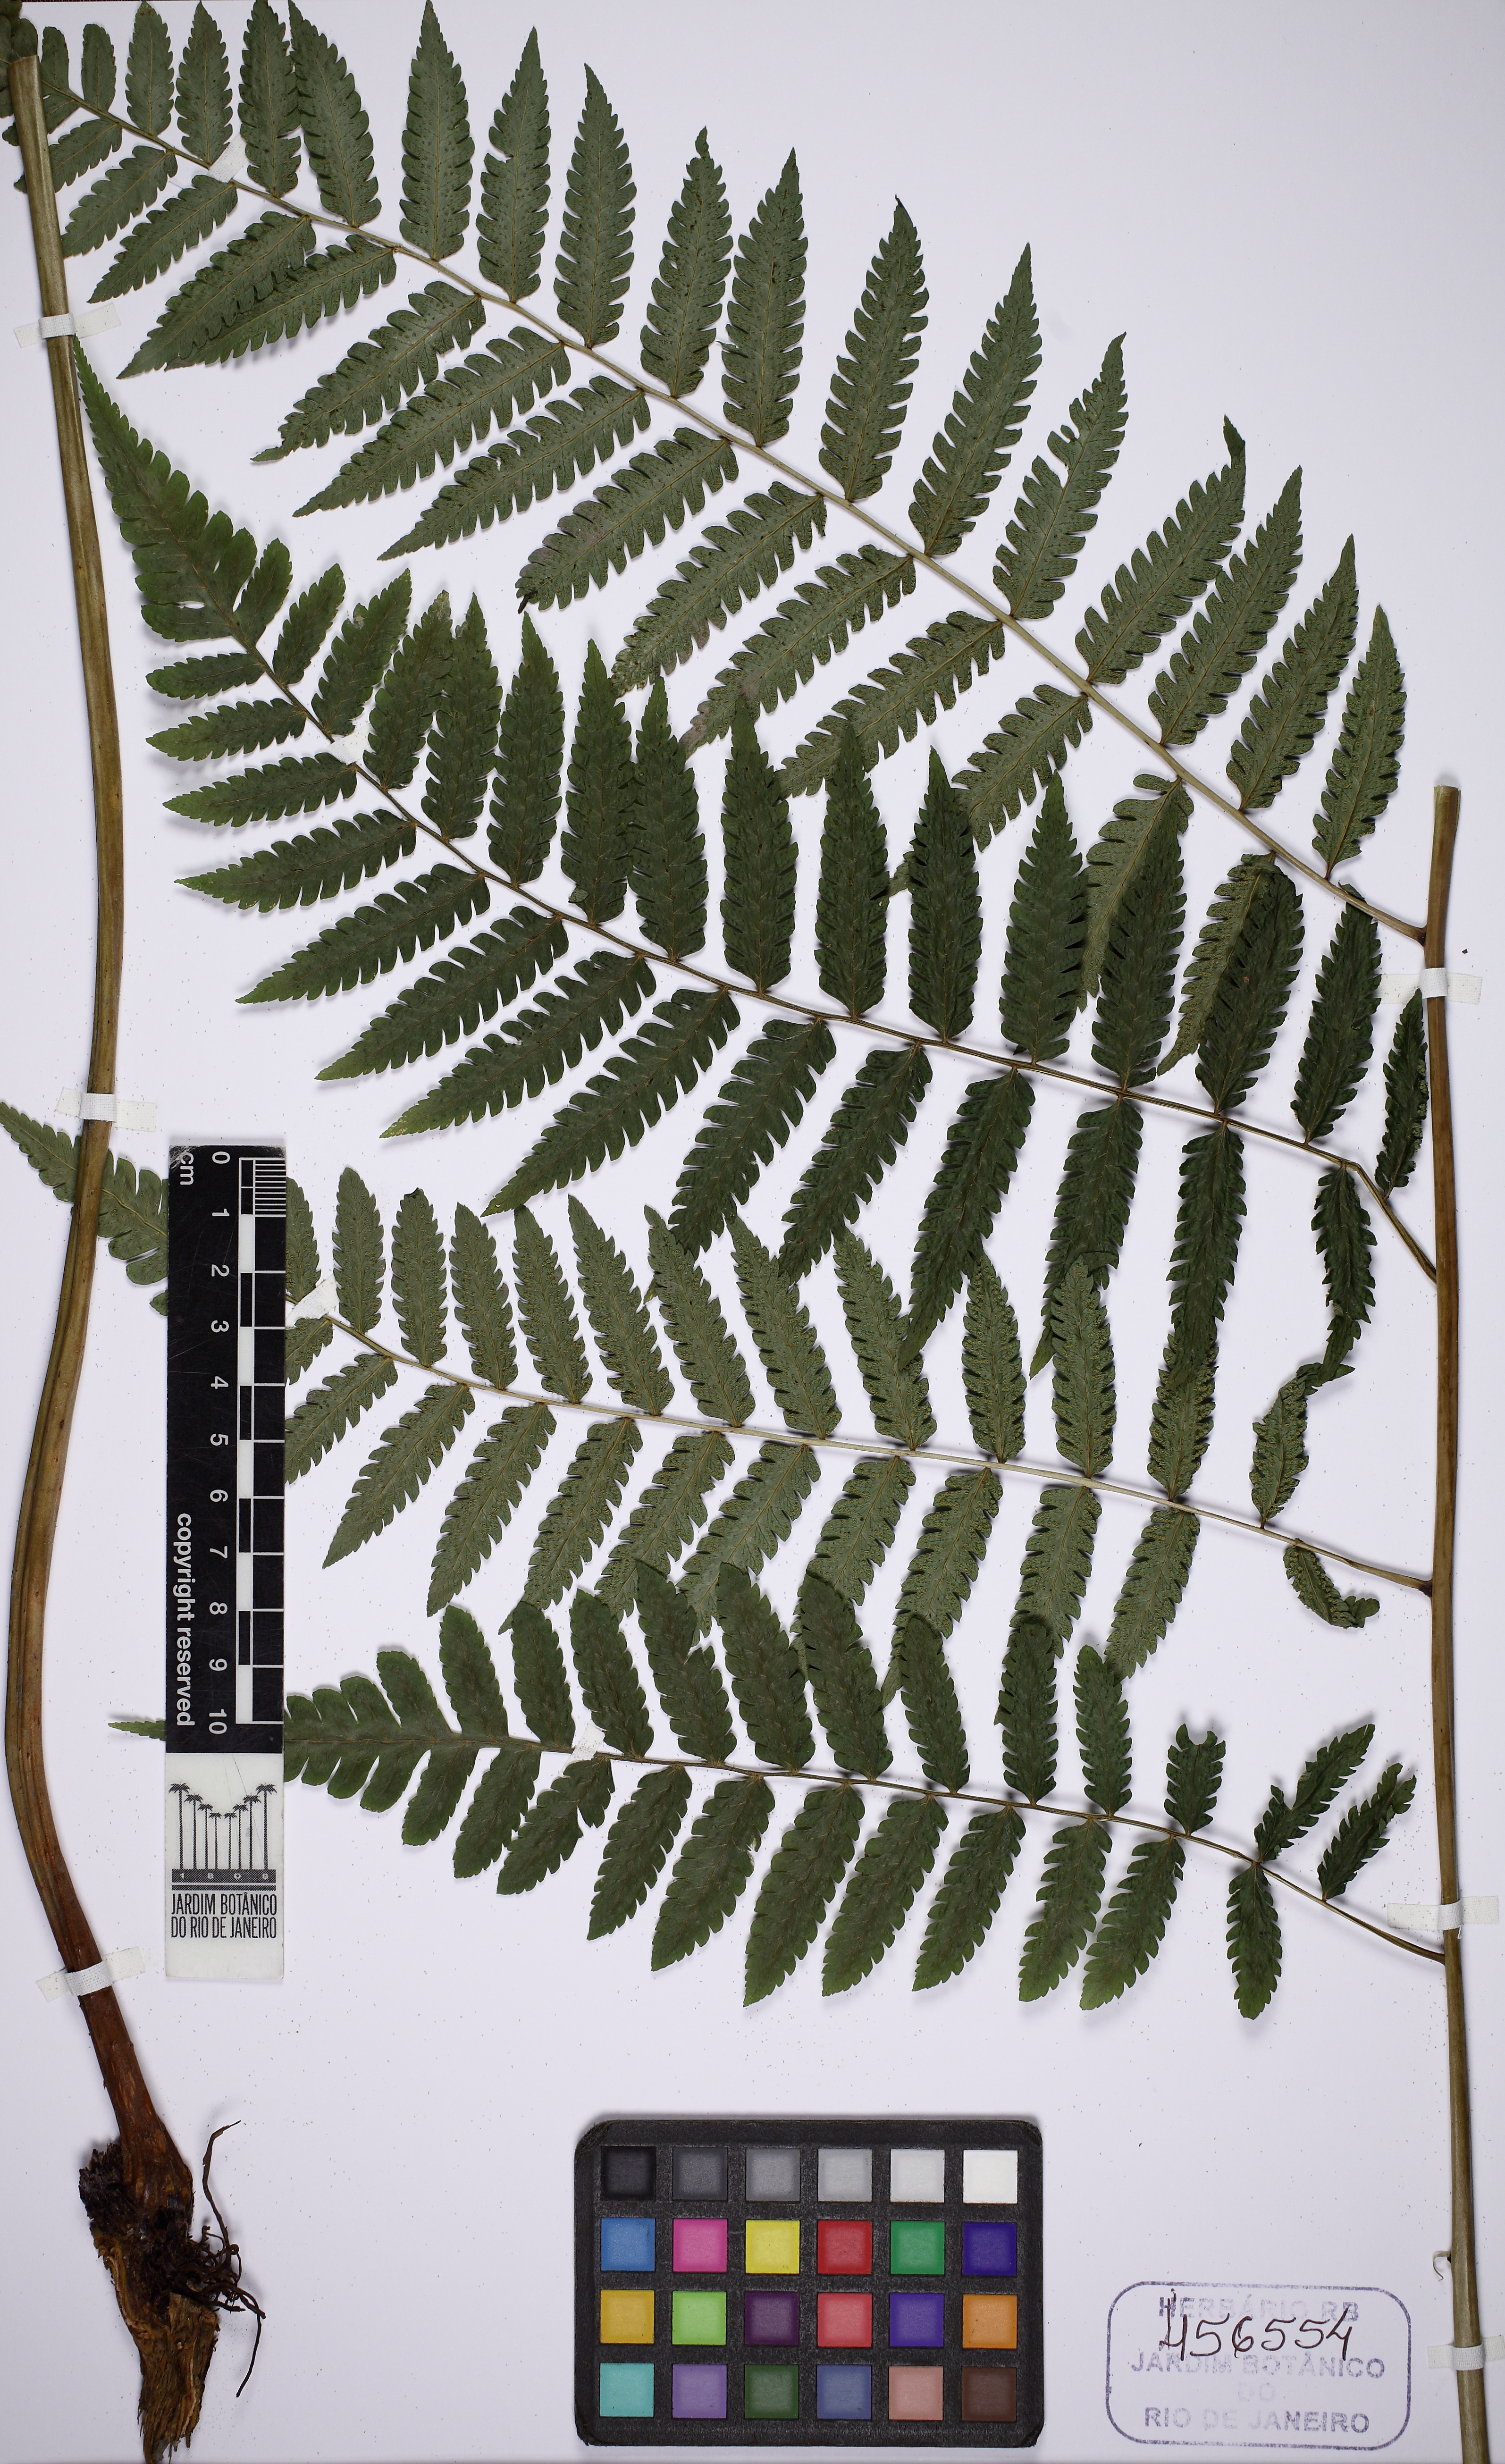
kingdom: Plantae
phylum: Tracheophyta
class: Polypodiopsida
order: Cyatheales
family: Cyatheaceae
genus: Cyathea
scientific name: Cyathea atrovirens
